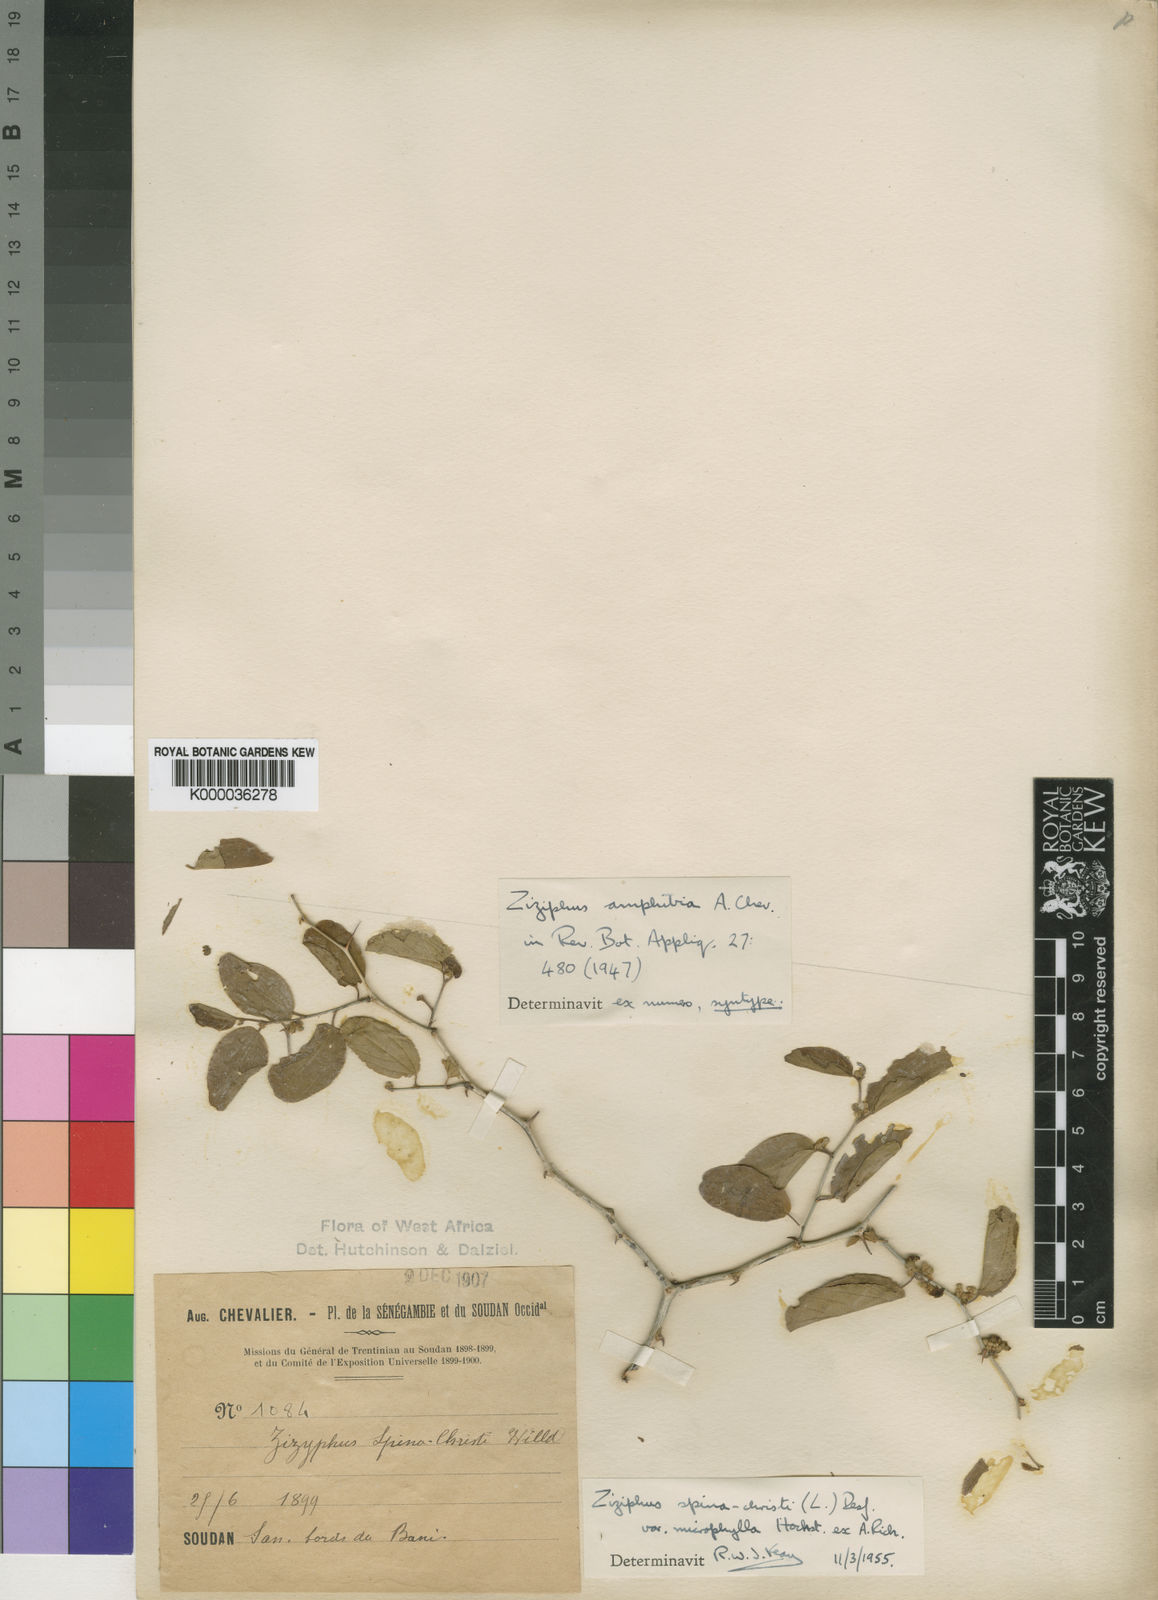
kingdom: Plantae
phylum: Tracheophyta
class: Magnoliopsida
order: Rosales
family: Rhamnaceae
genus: Ziziphus
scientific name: Ziziphus spina-christi
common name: Syrian christ-thorn
